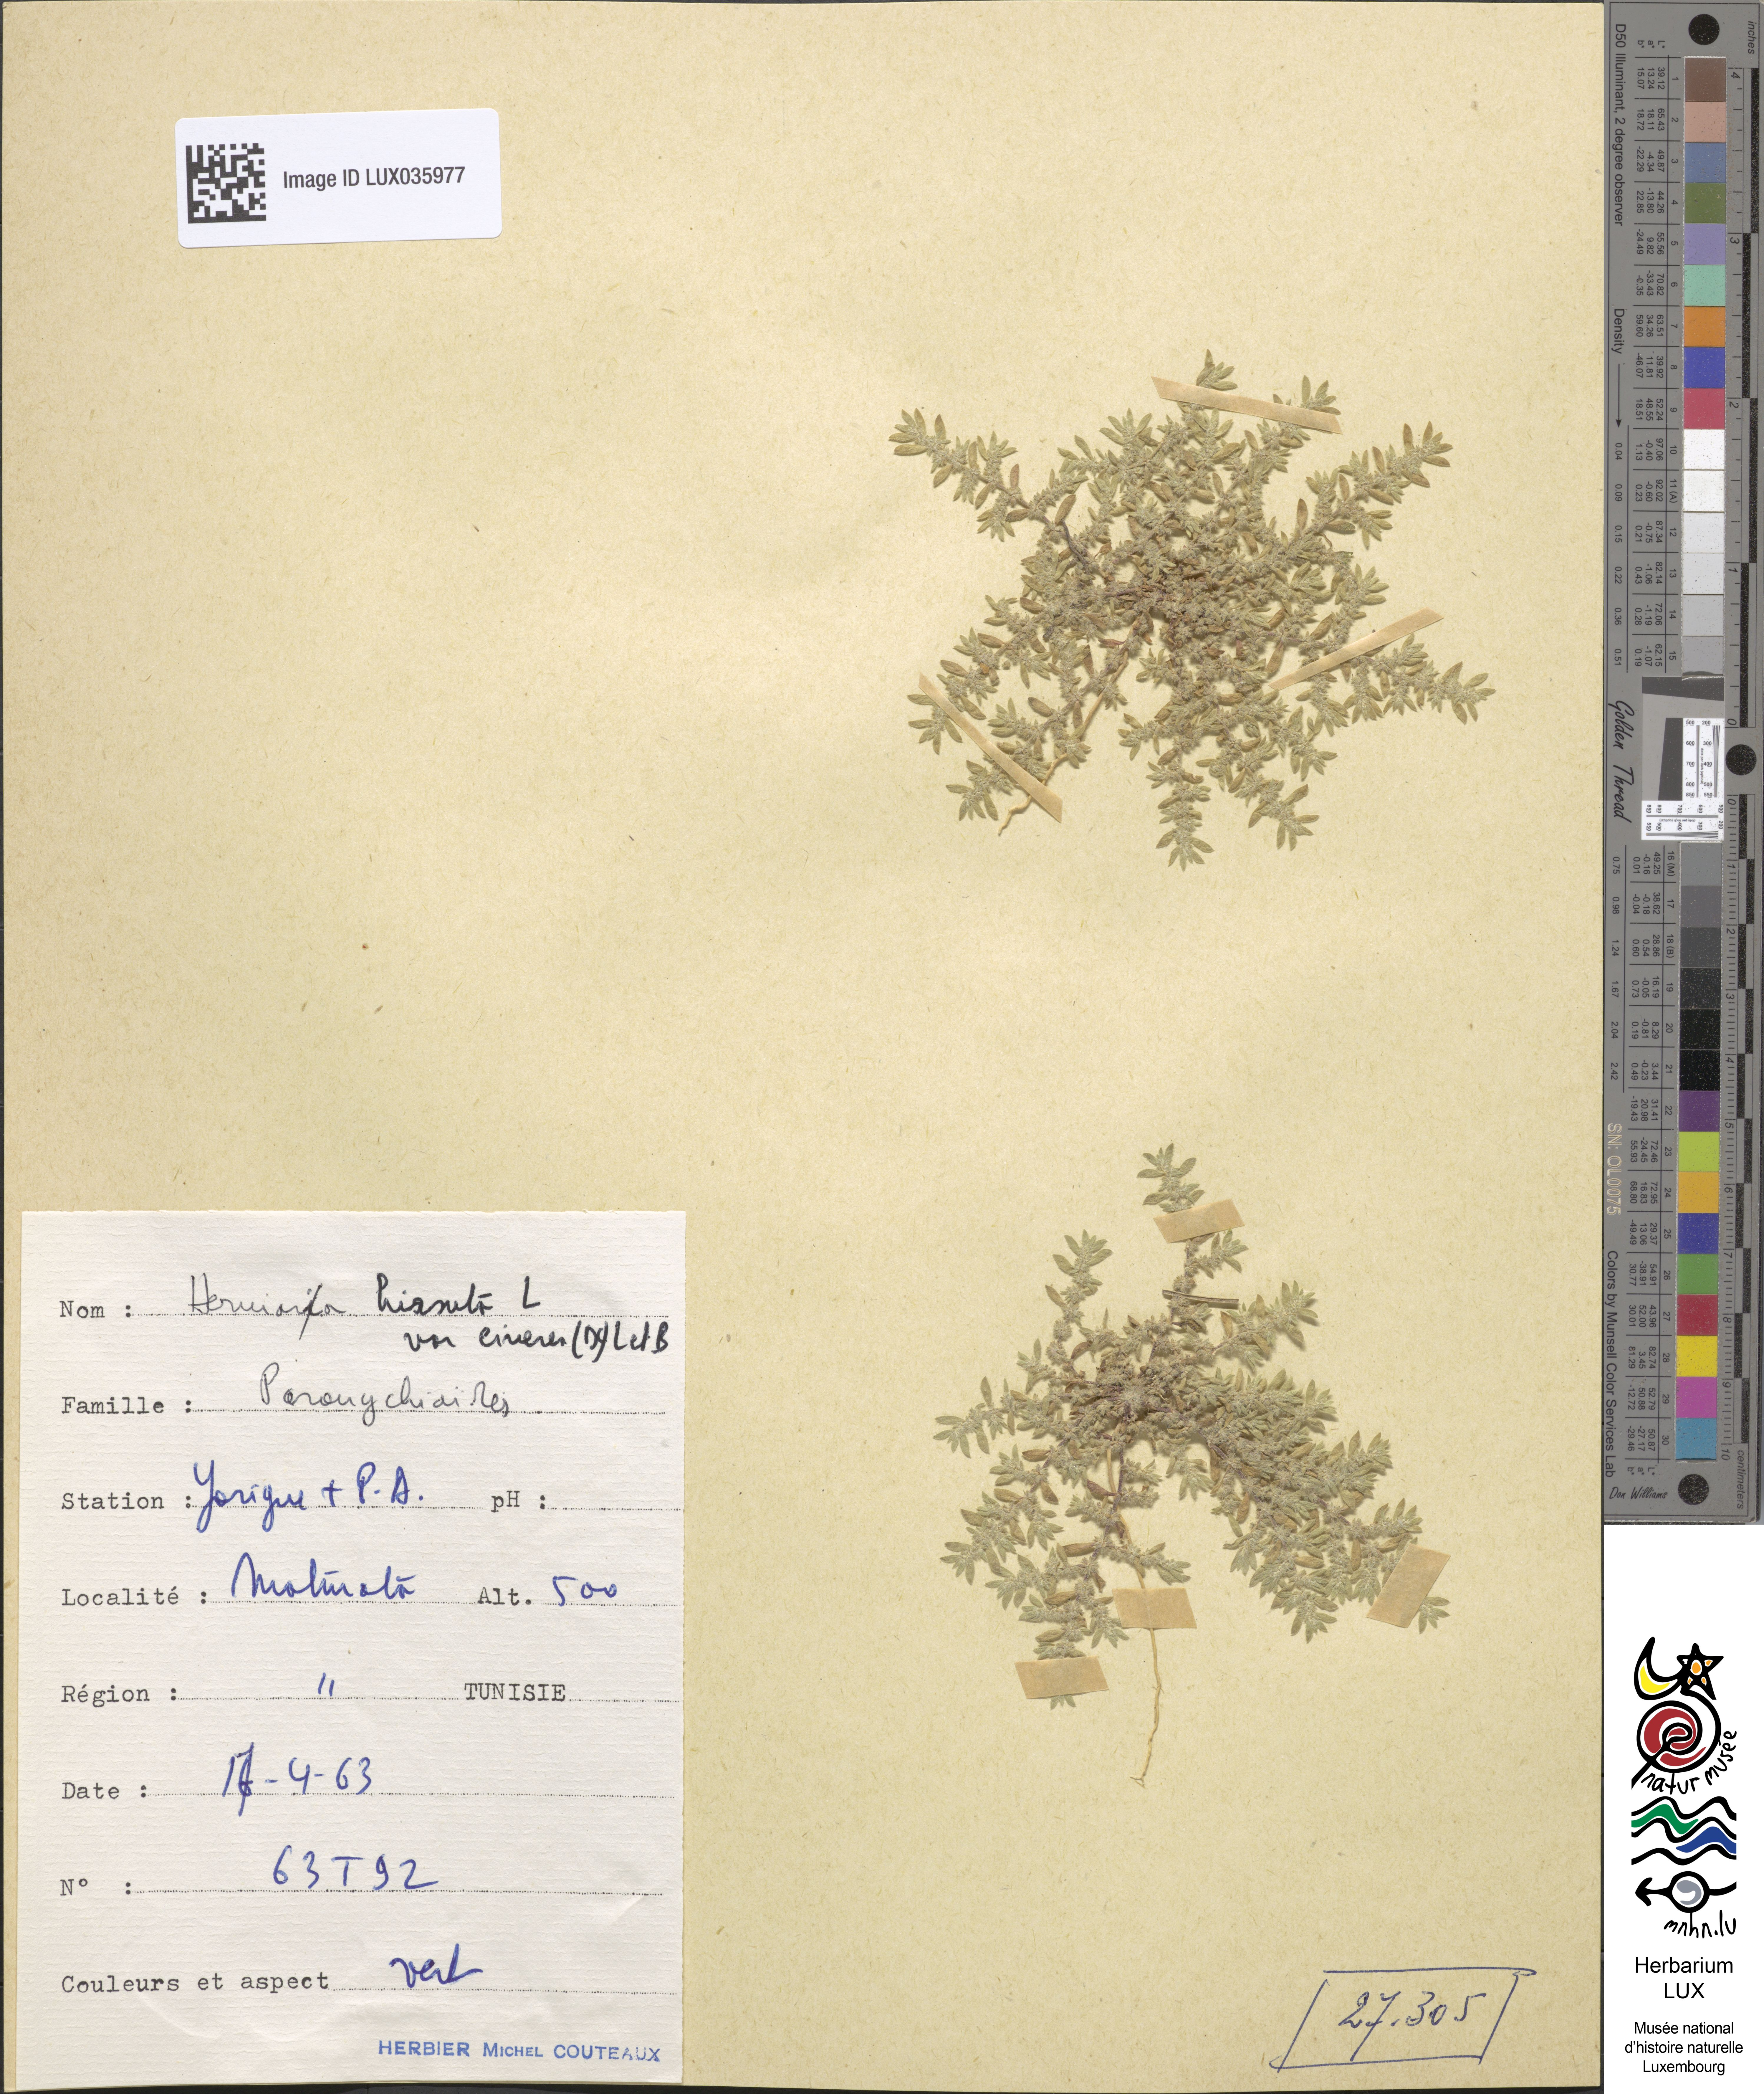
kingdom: Plantae
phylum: Tracheophyta
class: Magnoliopsida
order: Caryophyllales
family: Caryophyllaceae
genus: Herniaria
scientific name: Herniaria cinerea
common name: Hairy rupturewort
